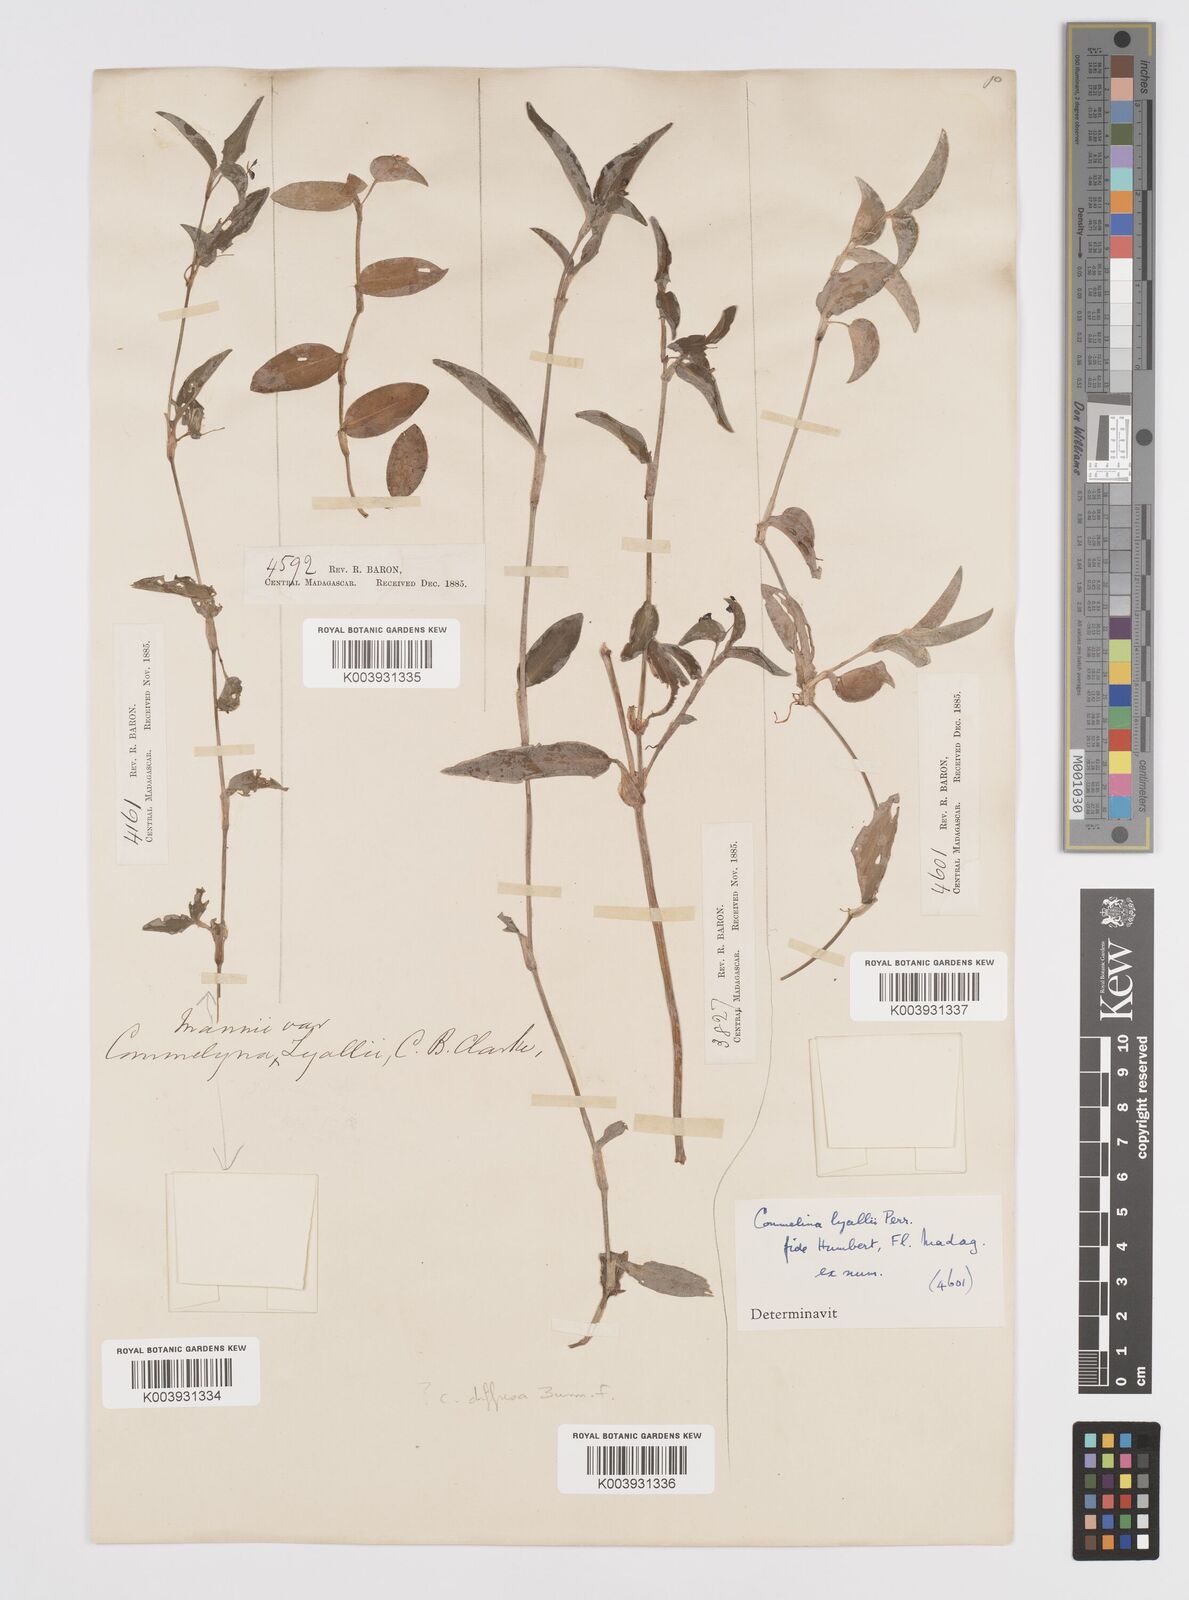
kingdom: Plantae
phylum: Tracheophyta
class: Liliopsida
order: Commelinales
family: Commelinaceae
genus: Commelina
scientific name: Commelina africana
